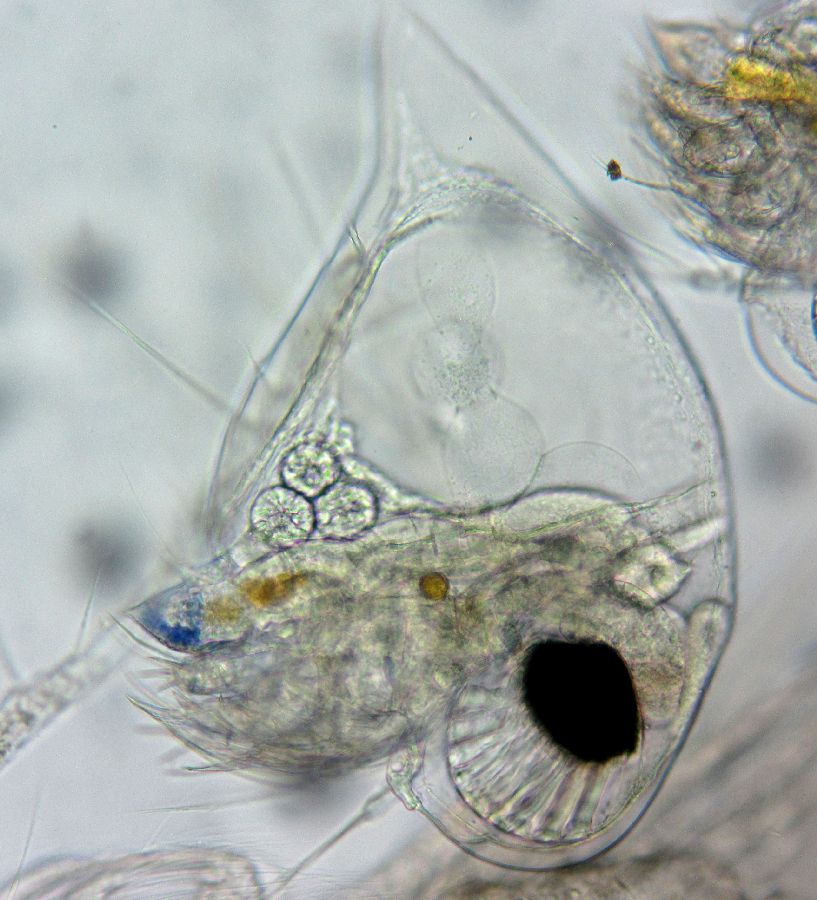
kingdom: Animalia
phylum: Arthropoda
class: Branchiopoda
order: Diplostraca
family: Podonidae
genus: Evadne
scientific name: Evadne nordmanni
